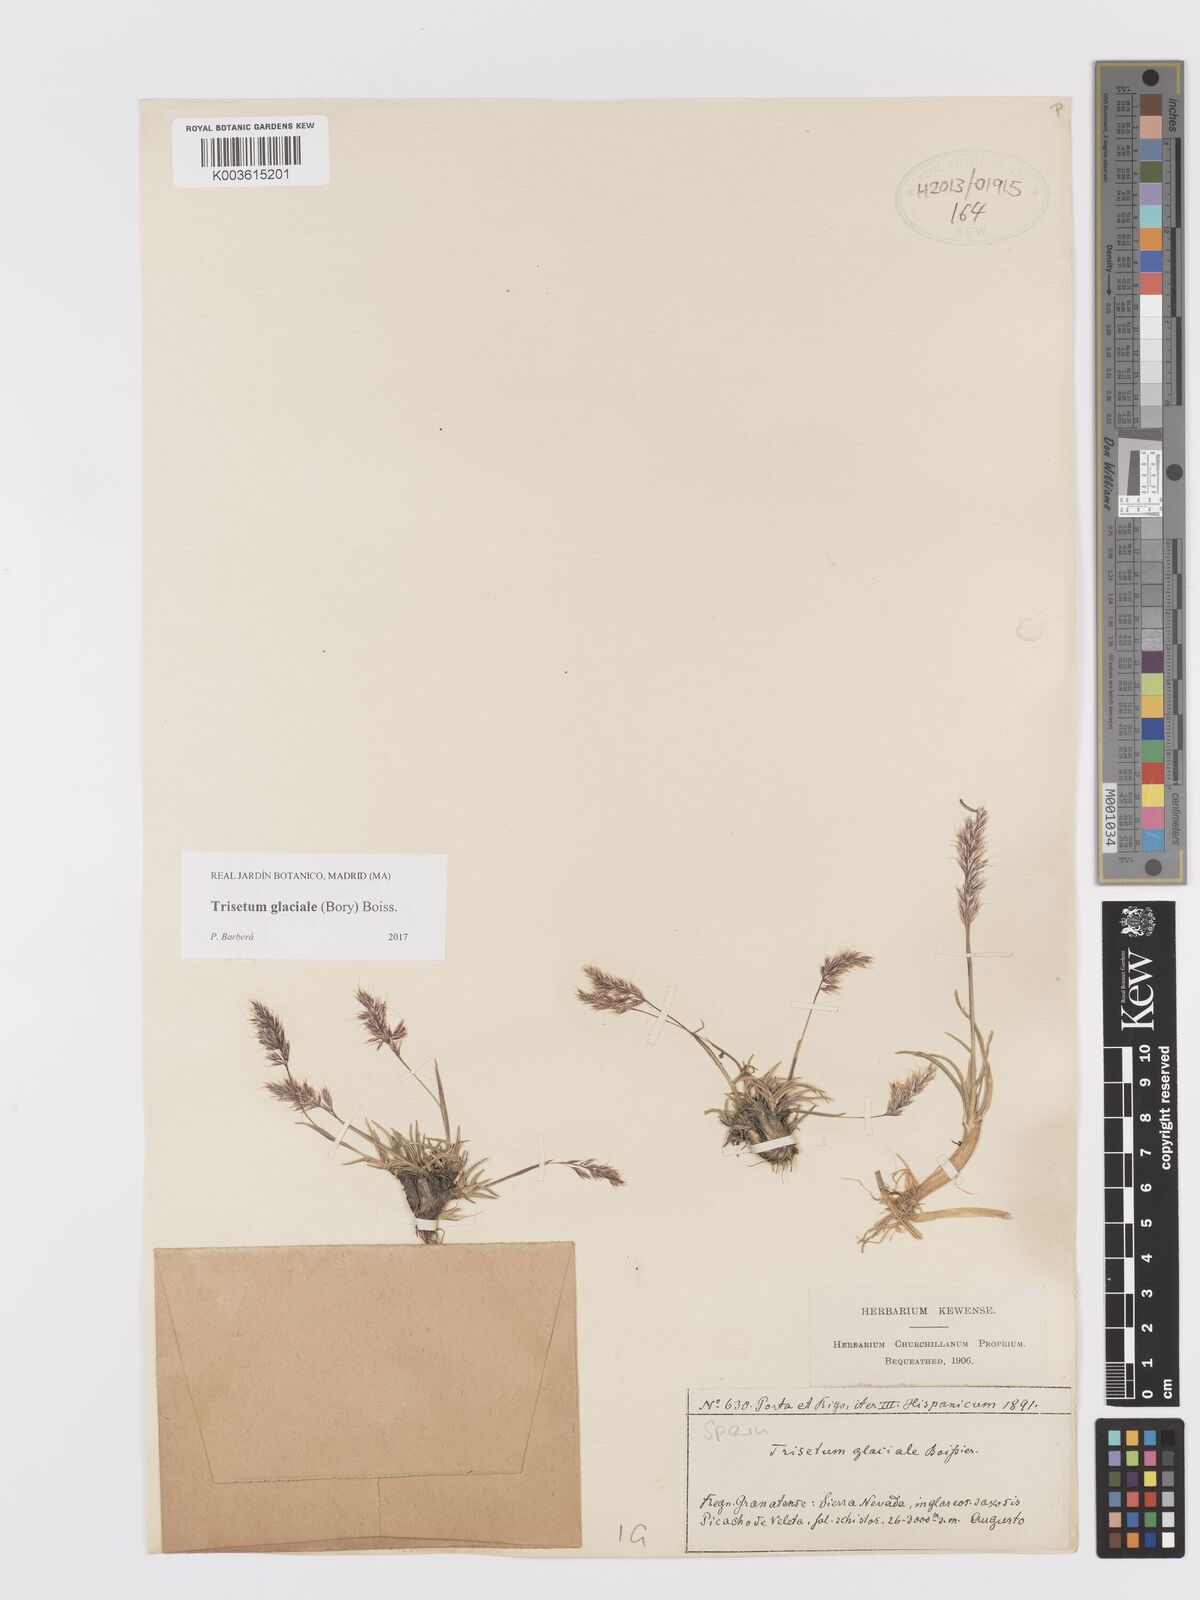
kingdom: Plantae
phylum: Tracheophyta
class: Liliopsida
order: Poales
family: Poaceae
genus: Acrospelion
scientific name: Acrospelion glaciale
